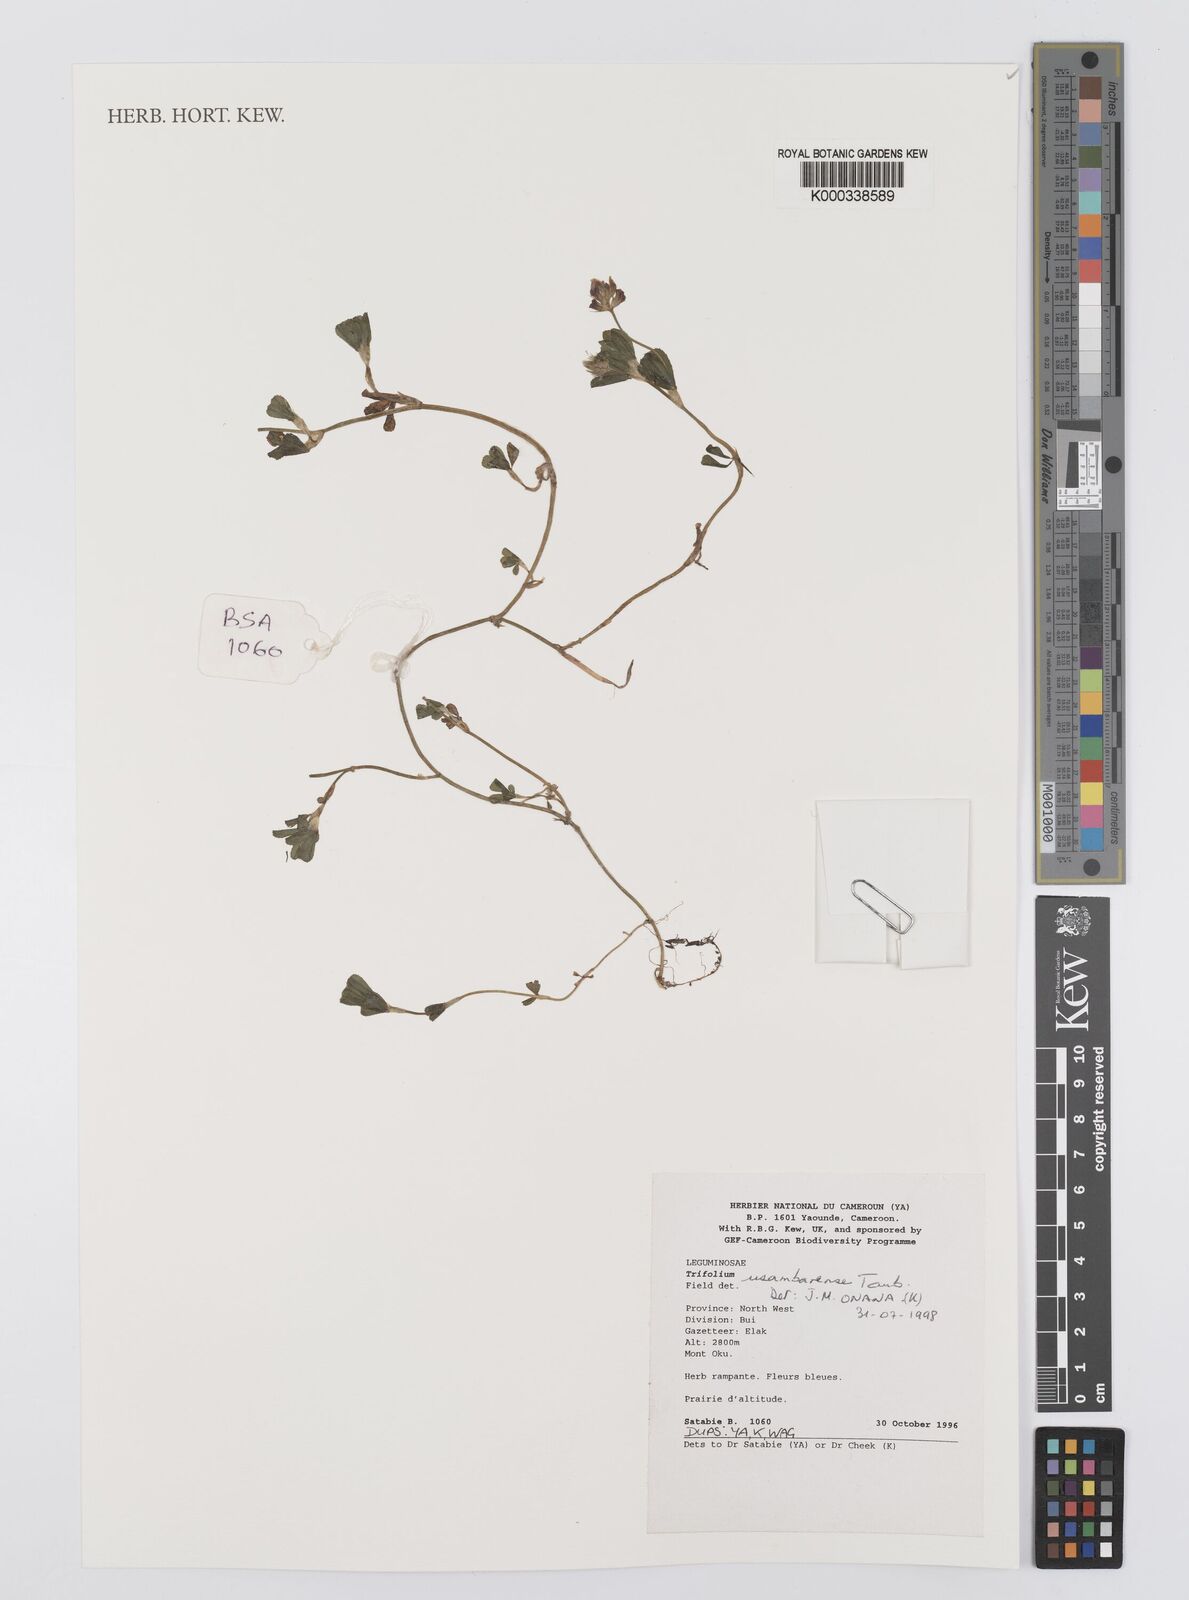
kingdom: Plantae
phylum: Tracheophyta
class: Magnoliopsida
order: Fabales
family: Fabaceae
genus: Trifolium
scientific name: Trifolium usambarense
